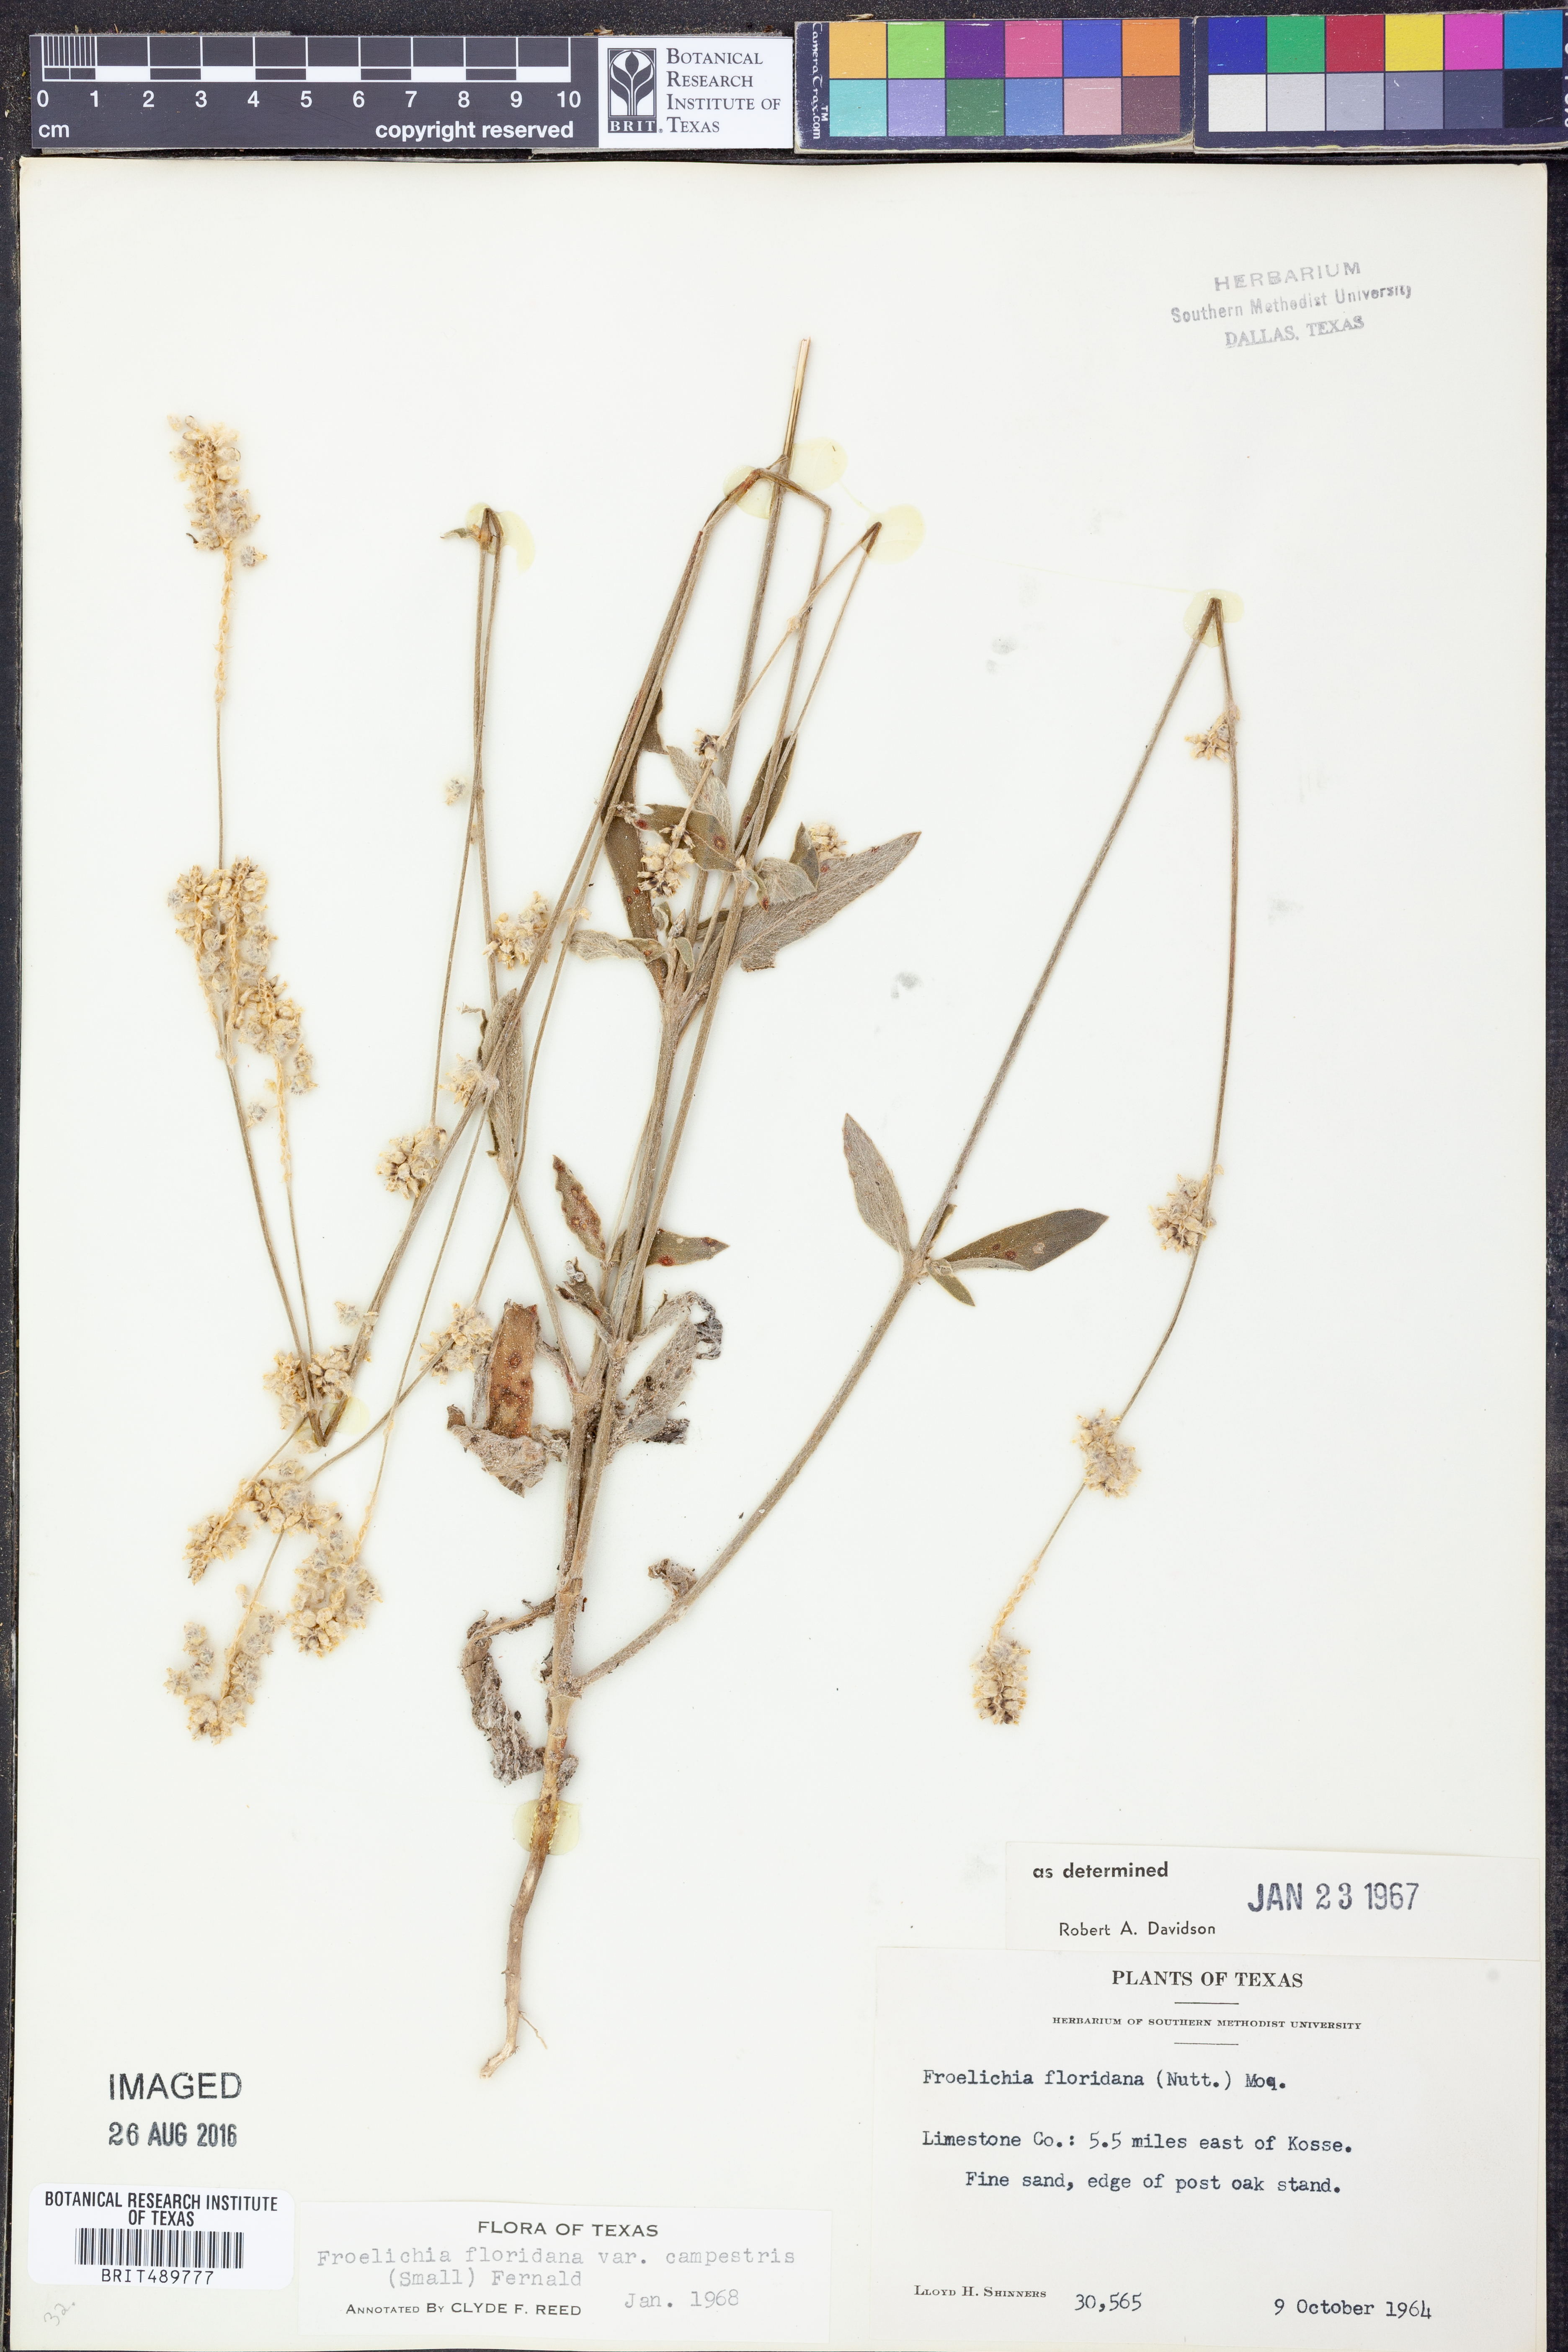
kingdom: Plantae
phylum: Tracheophyta
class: Magnoliopsida
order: Caryophyllales
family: Amaranthaceae
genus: Froelichia
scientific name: Froelichia floridana
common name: Florida snake-cotton
